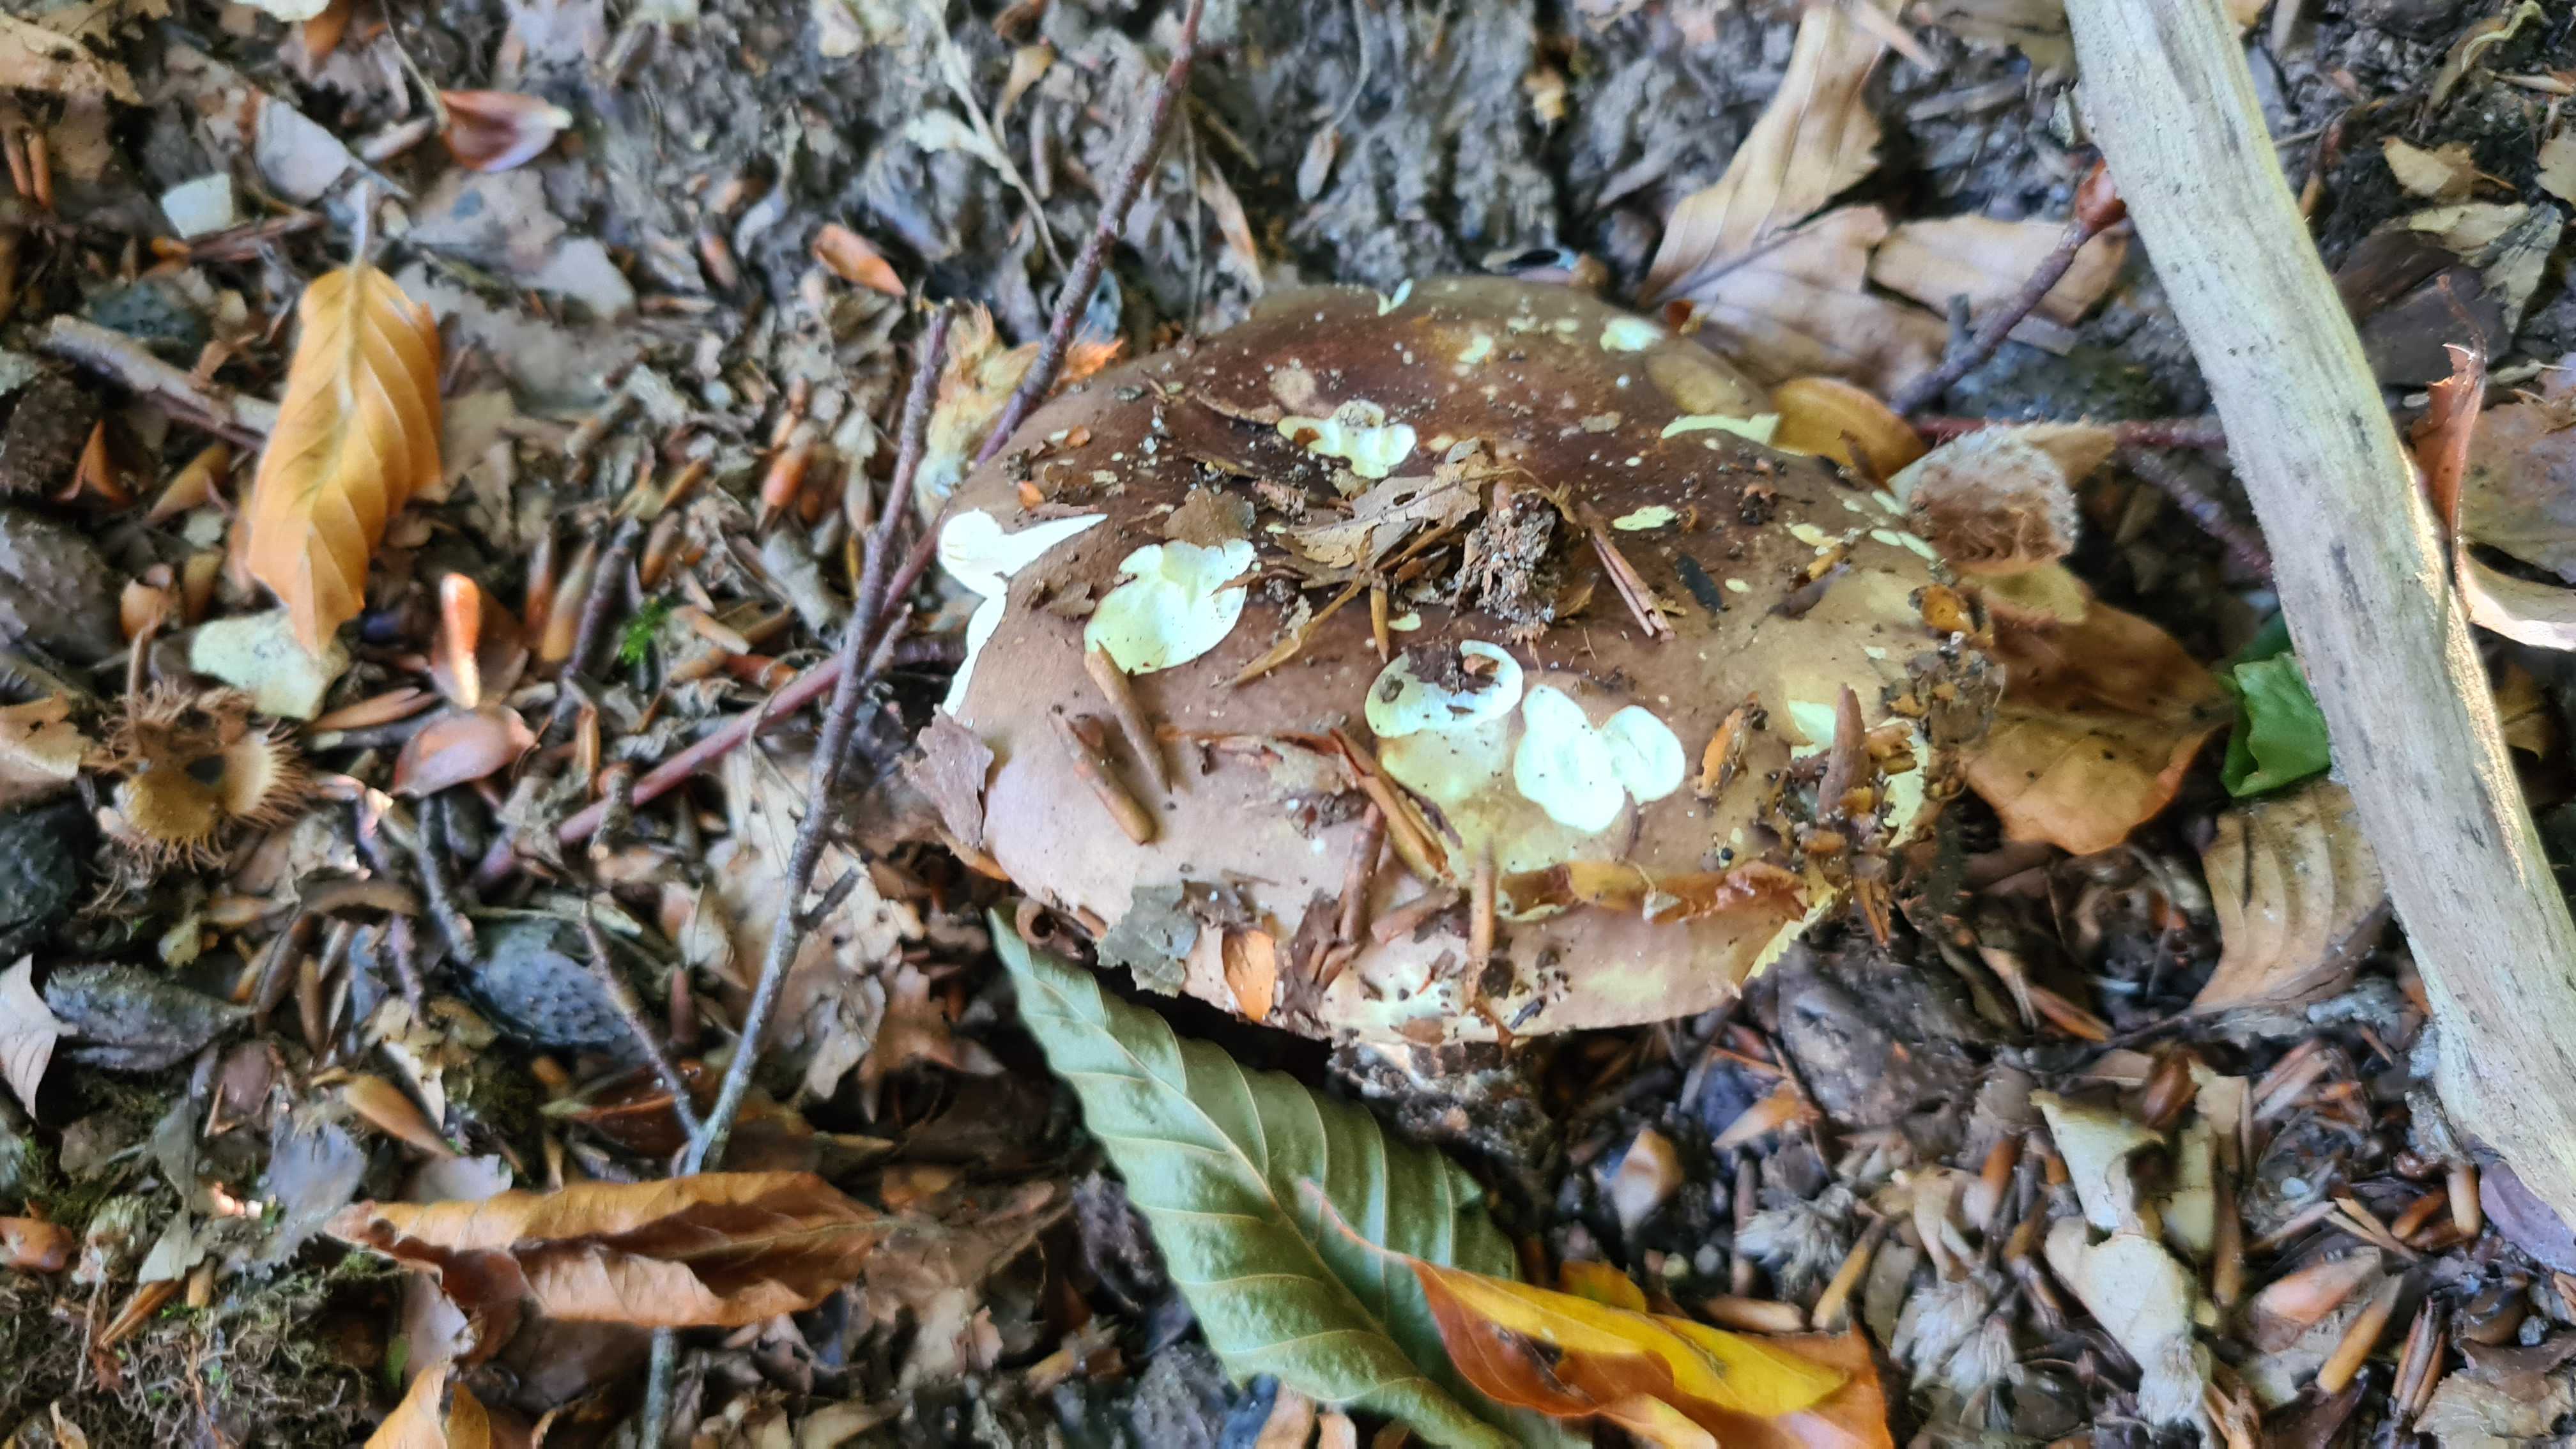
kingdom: Fungi
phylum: Basidiomycota
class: Agaricomycetes
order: Russulales
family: Russulaceae
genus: Russula
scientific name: Russula olivacea
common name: stor skørhat
